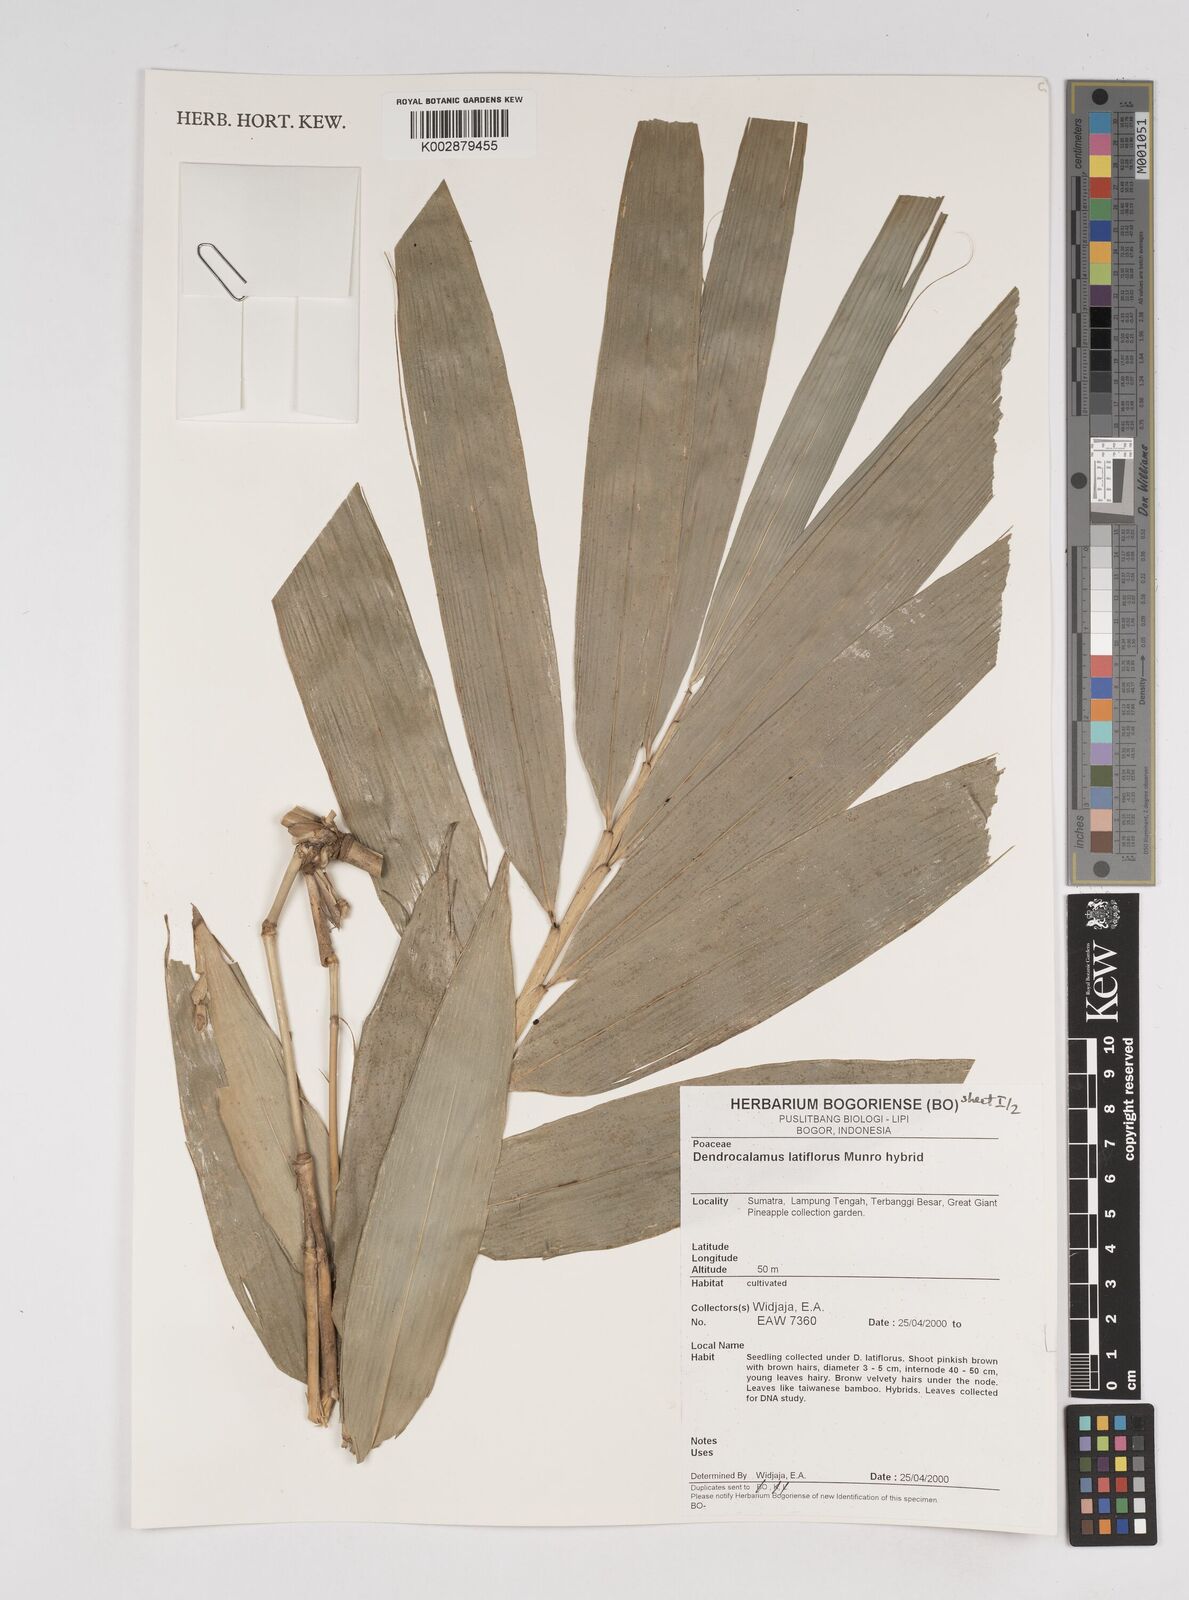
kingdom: Plantae
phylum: Tracheophyta
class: Liliopsida
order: Poales
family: Poaceae
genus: Dendrocalamus
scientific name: Dendrocalamus latiflorus
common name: Giant bamboo
